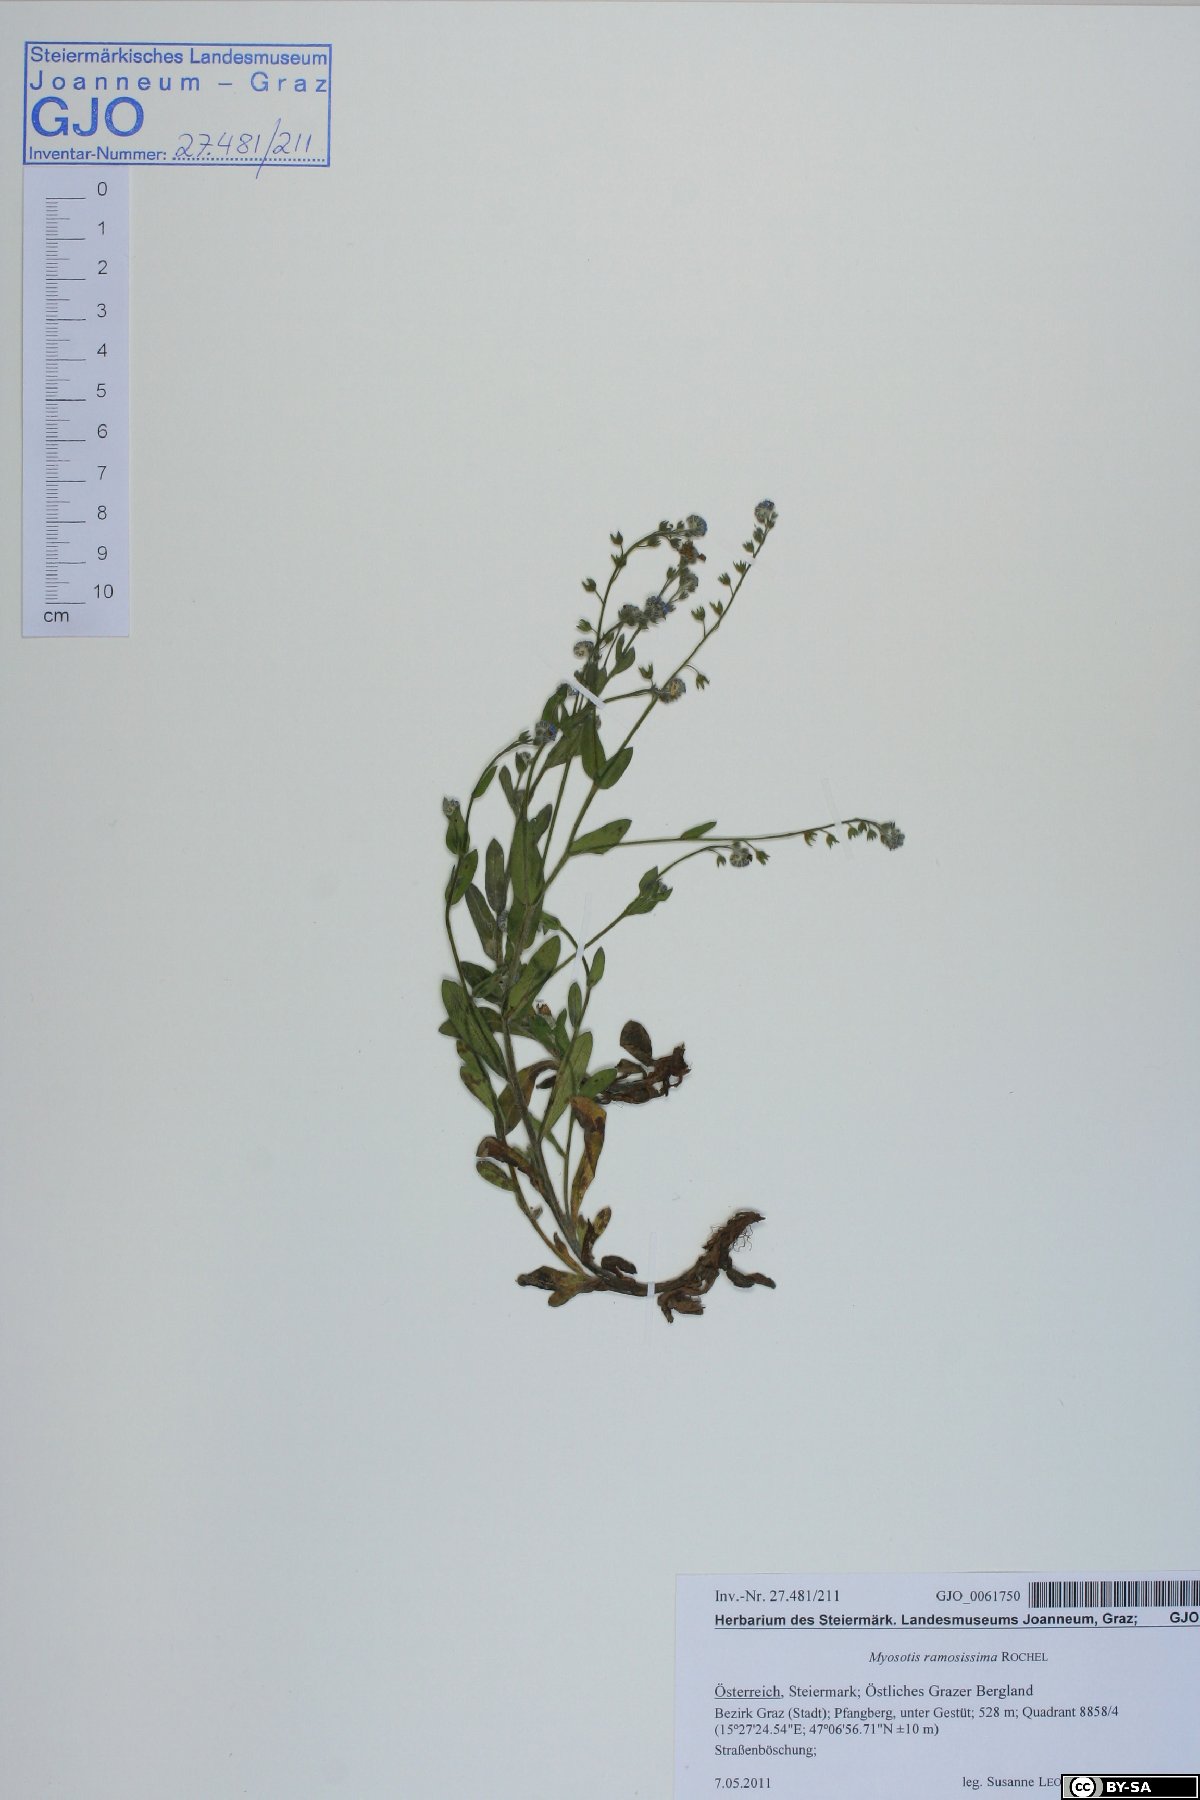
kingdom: Plantae
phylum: Tracheophyta
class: Magnoliopsida
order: Boraginales
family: Boraginaceae
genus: Myosotis
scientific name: Myosotis ramosissima
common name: Early forget-me-not
